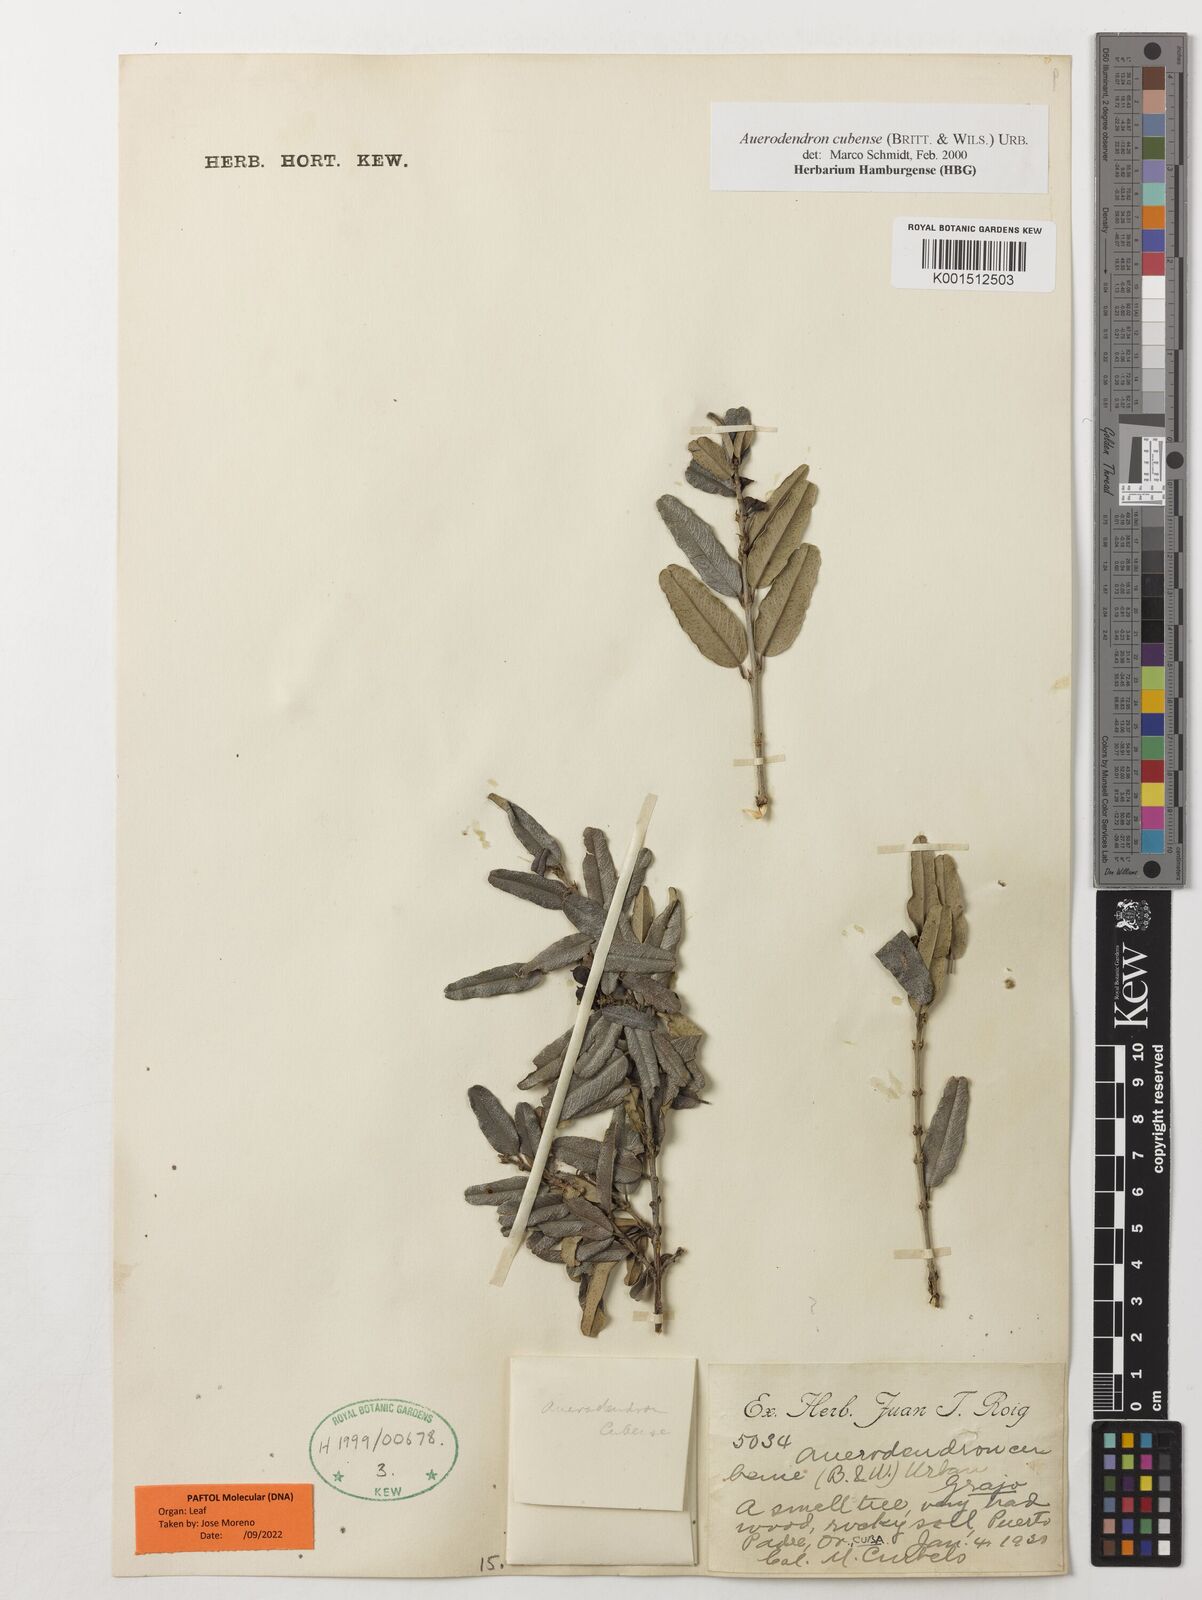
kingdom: Plantae
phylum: Tracheophyta
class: Magnoliopsida
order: Rosales
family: Rhamnaceae
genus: Auerodendron
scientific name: Auerodendron cubense
